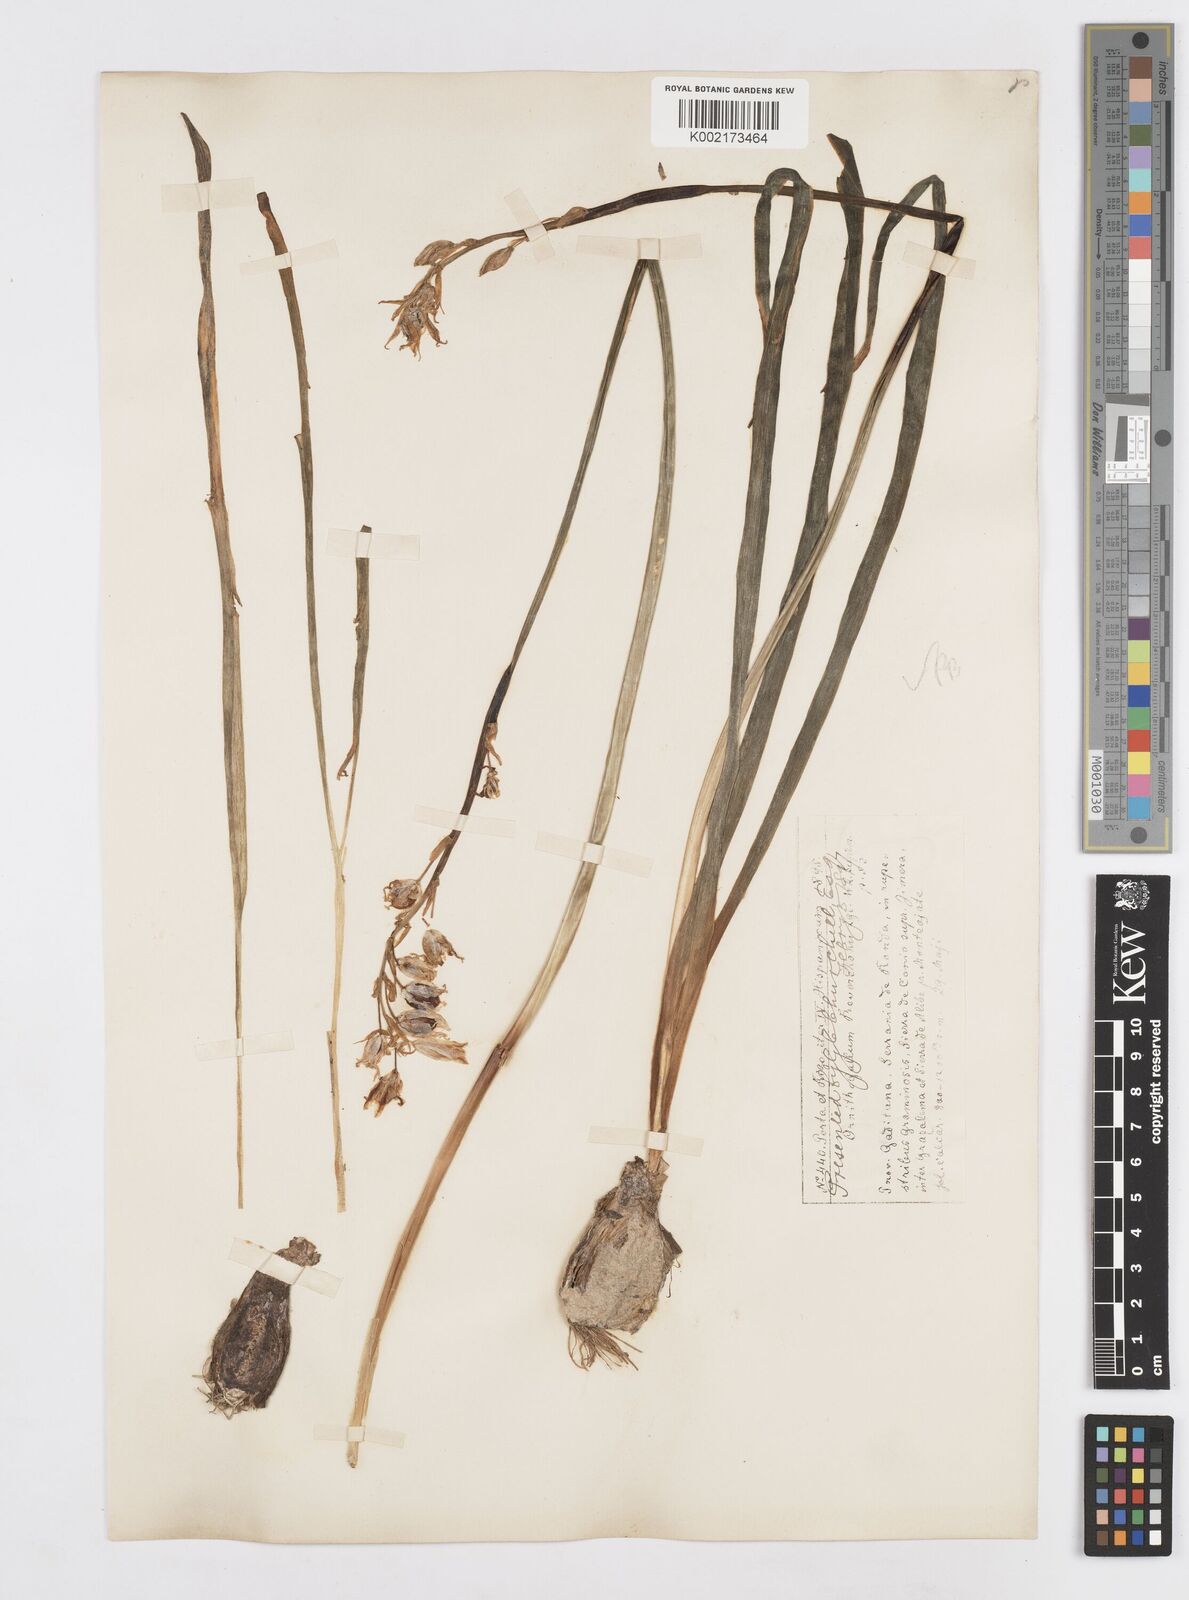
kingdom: Plantae
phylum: Tracheophyta
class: Liliopsida
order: Asparagales
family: Asparagaceae
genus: Ornithogalum
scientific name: Ornithogalum reverchonii
